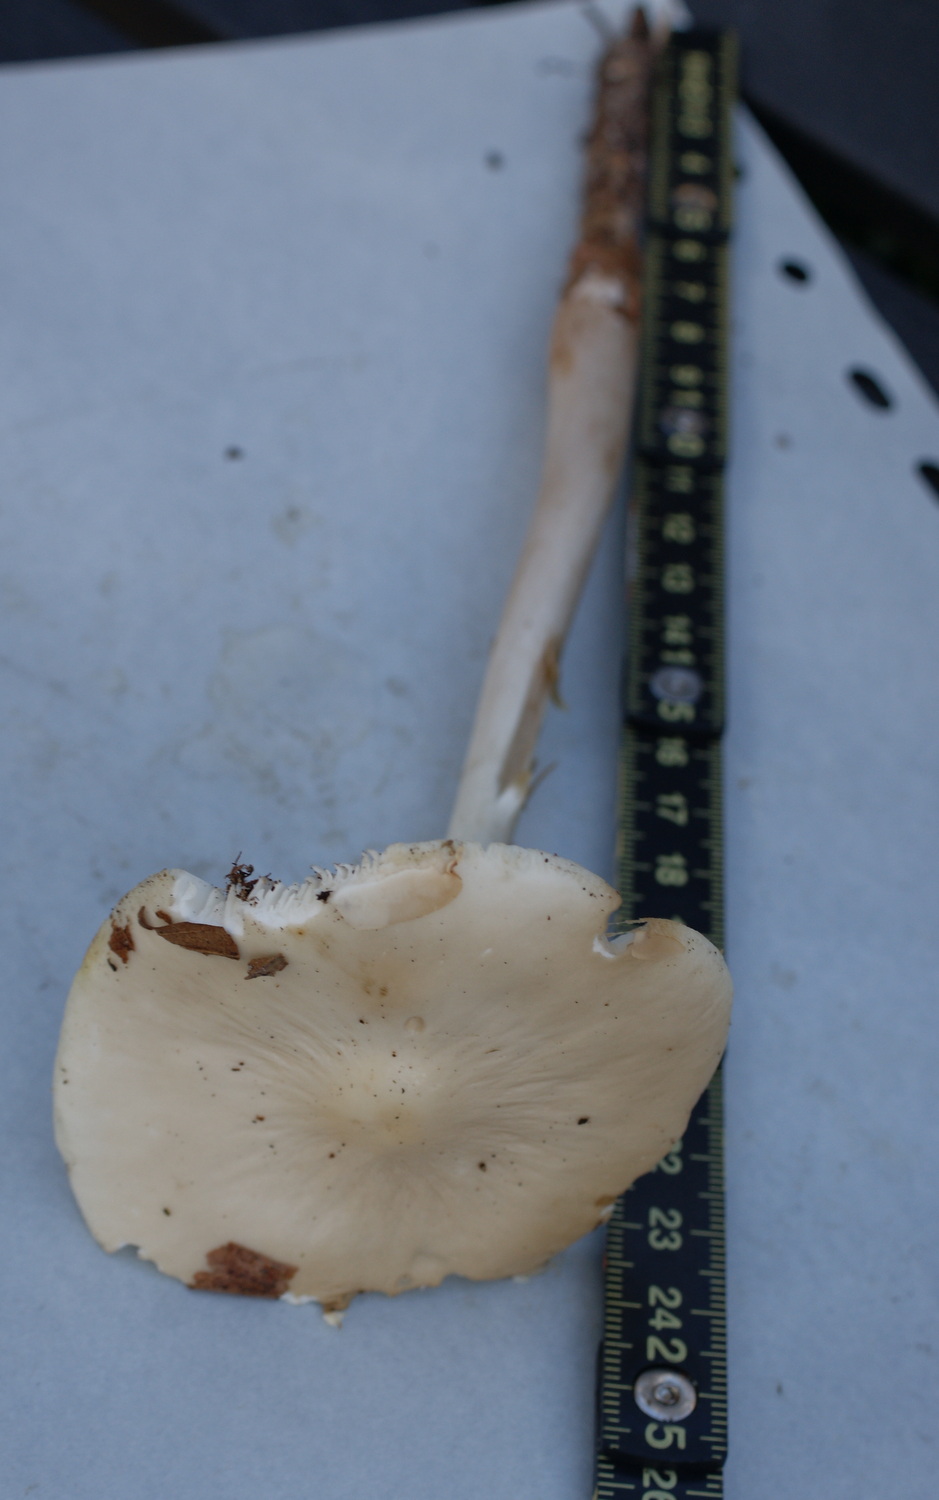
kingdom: Fungi
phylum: Basidiomycota
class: Agaricomycetes
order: Agaricales
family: Physalacriaceae
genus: Hymenopellis
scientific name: Hymenopellis radicata
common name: almindelig pælerodshat
